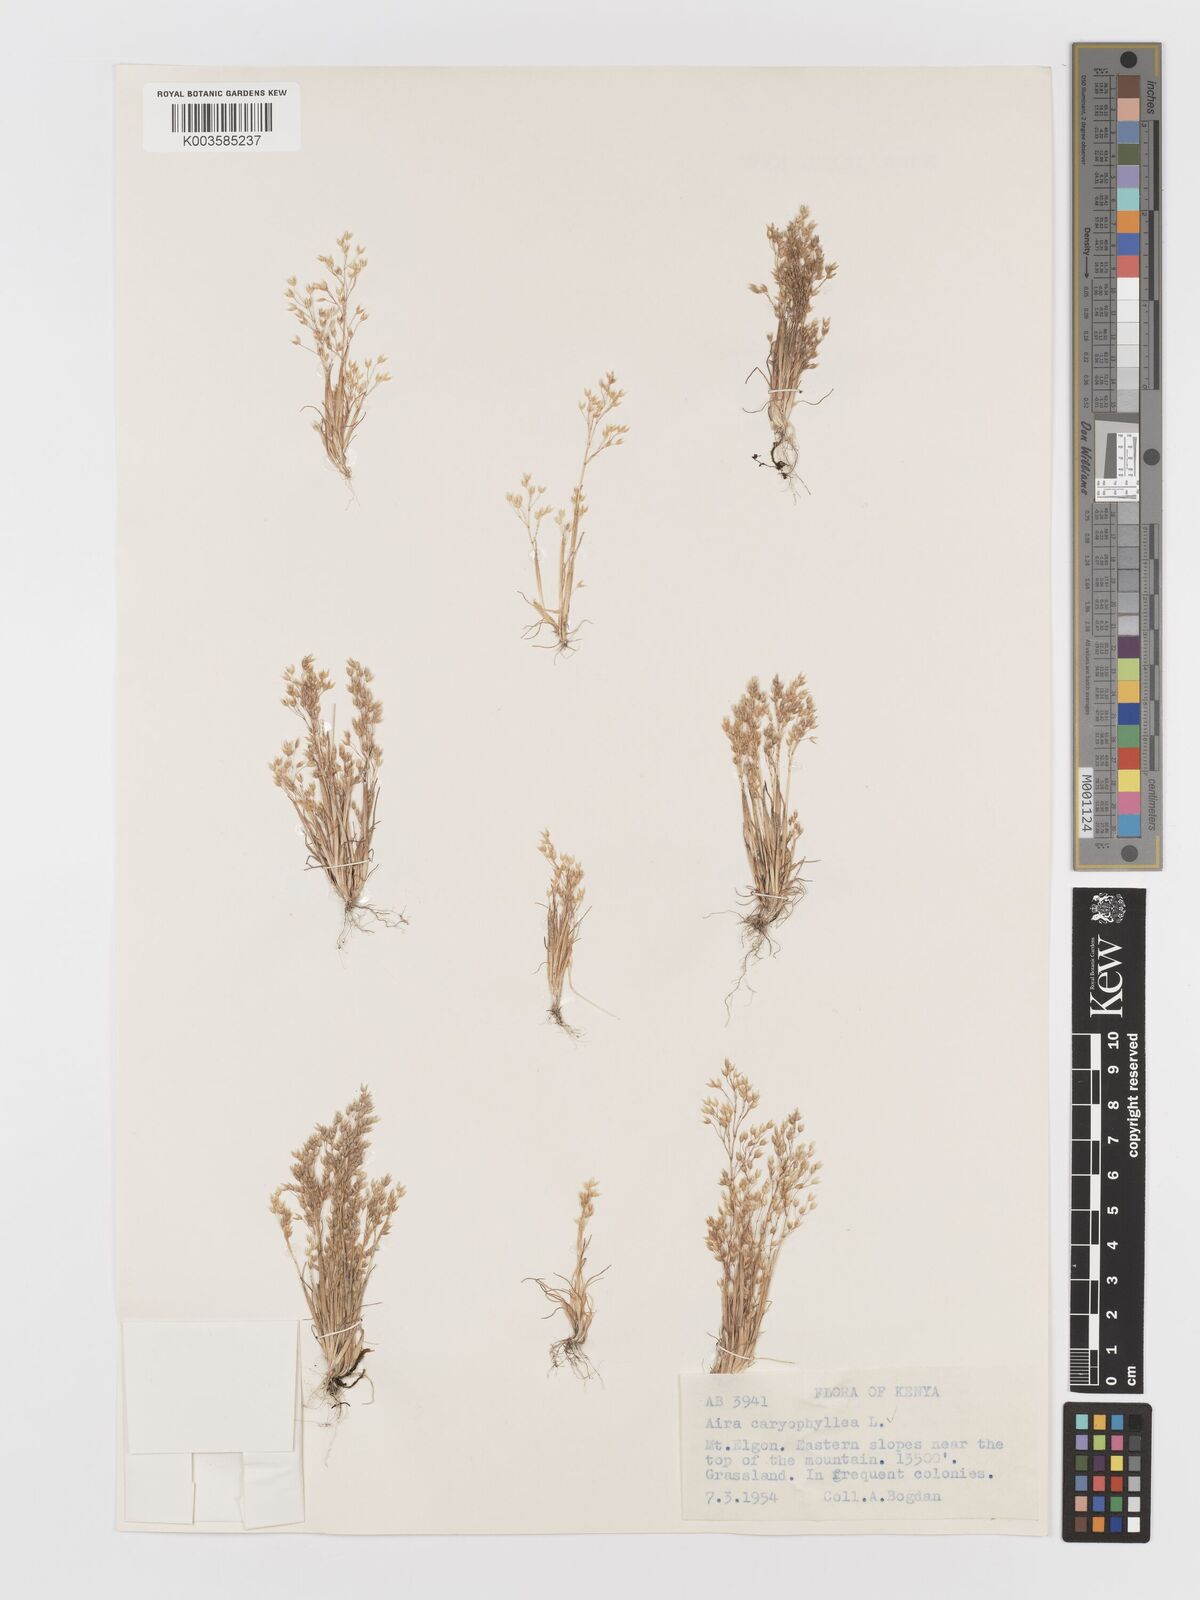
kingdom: Plantae
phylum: Tracheophyta
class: Liliopsida
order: Poales
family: Poaceae
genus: Aira
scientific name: Aira caryophyllea
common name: Silver hairgrass
